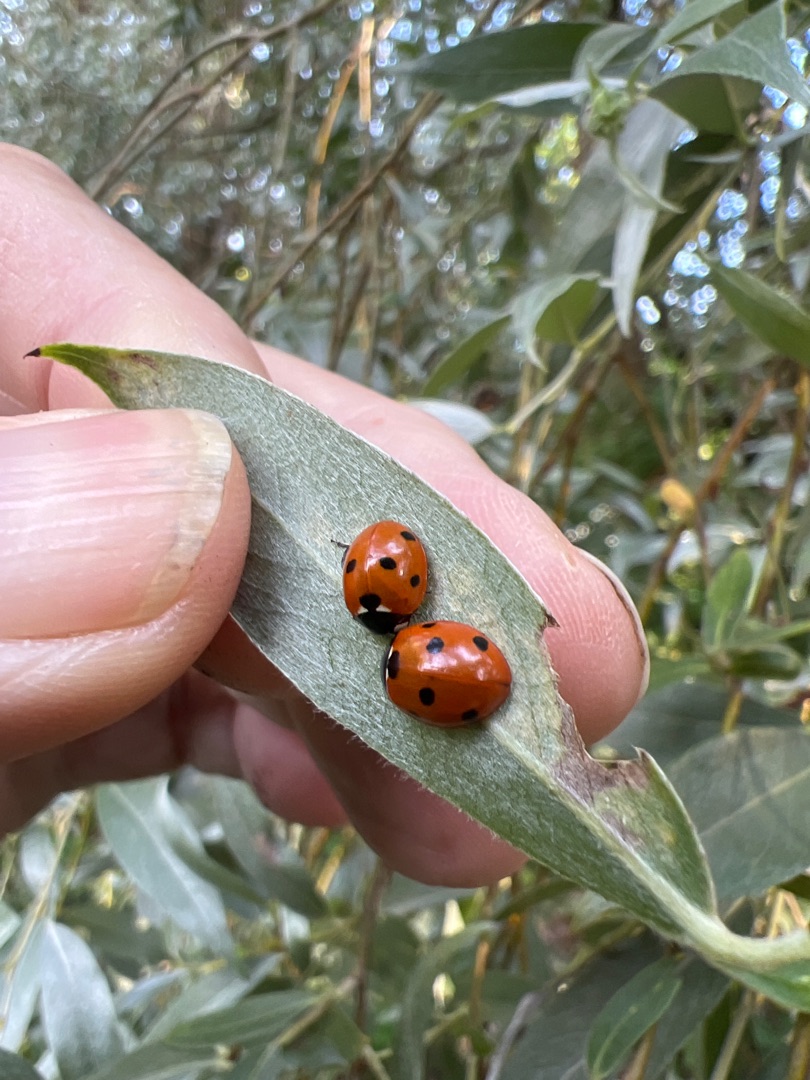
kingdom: Animalia
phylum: Arthropoda
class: Insecta
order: Coleoptera
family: Coccinellidae
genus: Coccinella
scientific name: Coccinella septempunctata
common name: Syvplettet mariehøne
